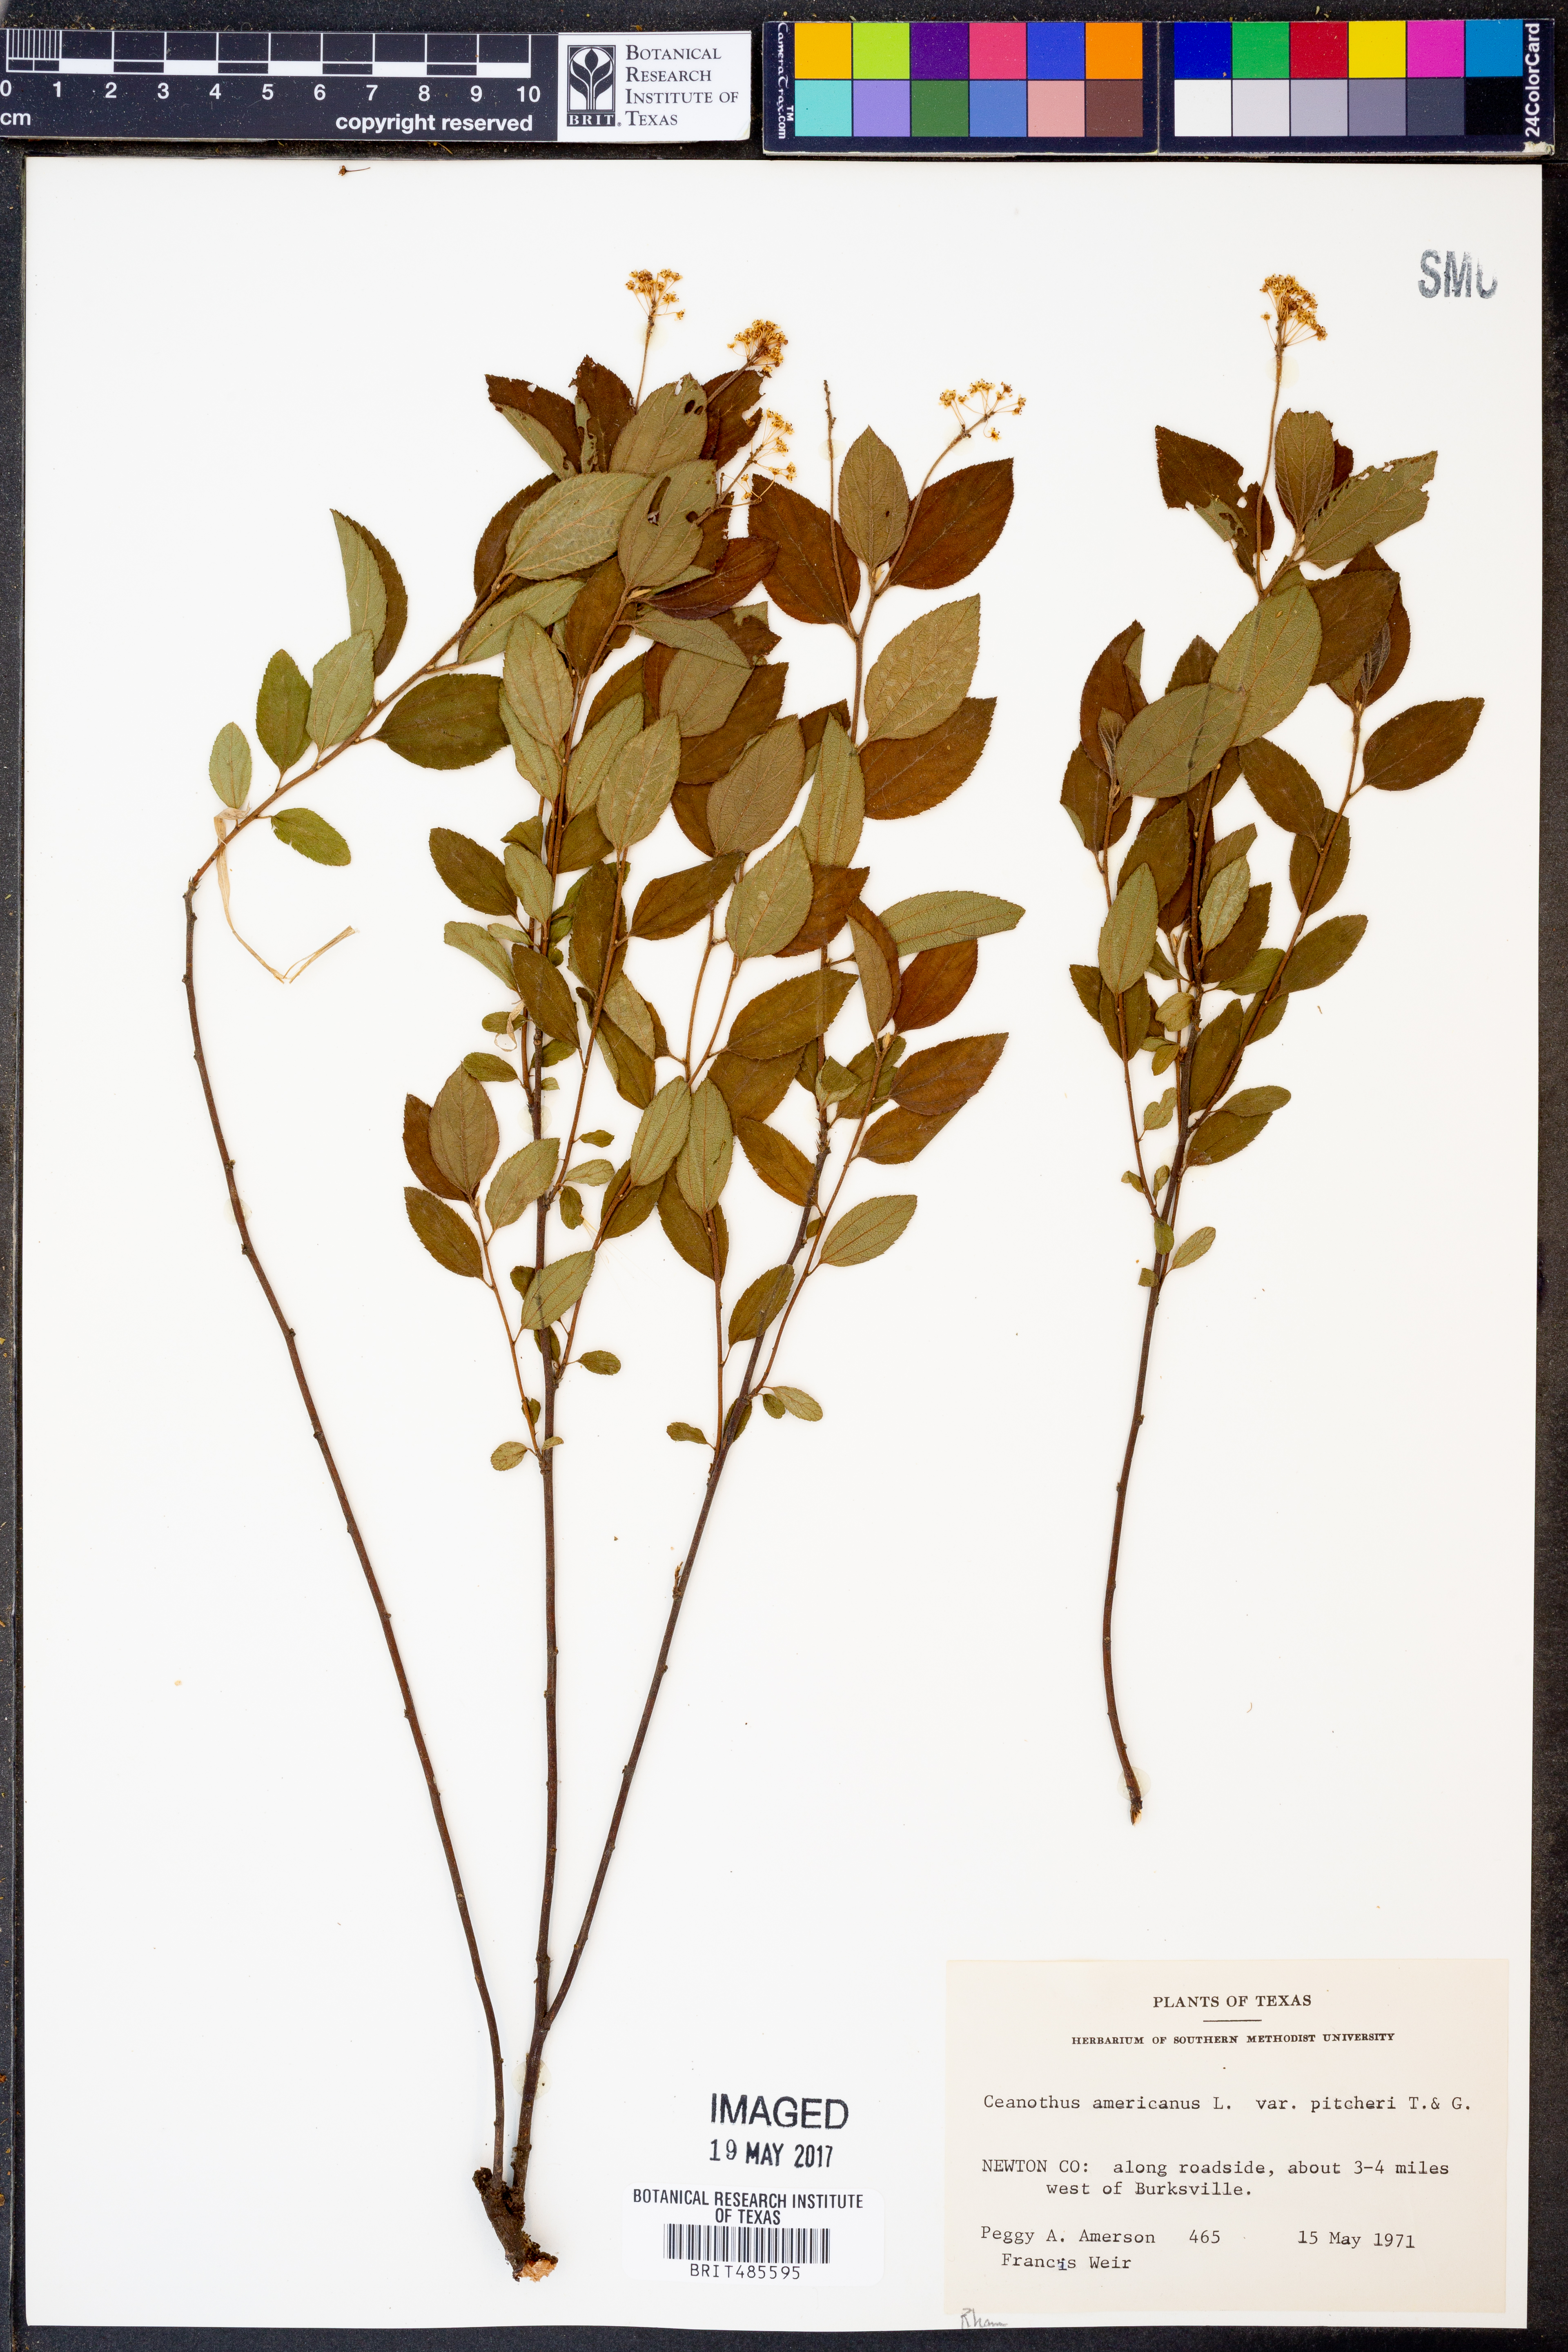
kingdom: Plantae
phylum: Tracheophyta
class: Magnoliopsida
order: Rosales
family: Rhamnaceae
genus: Ceanothus
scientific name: Ceanothus americanus
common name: Redroot
